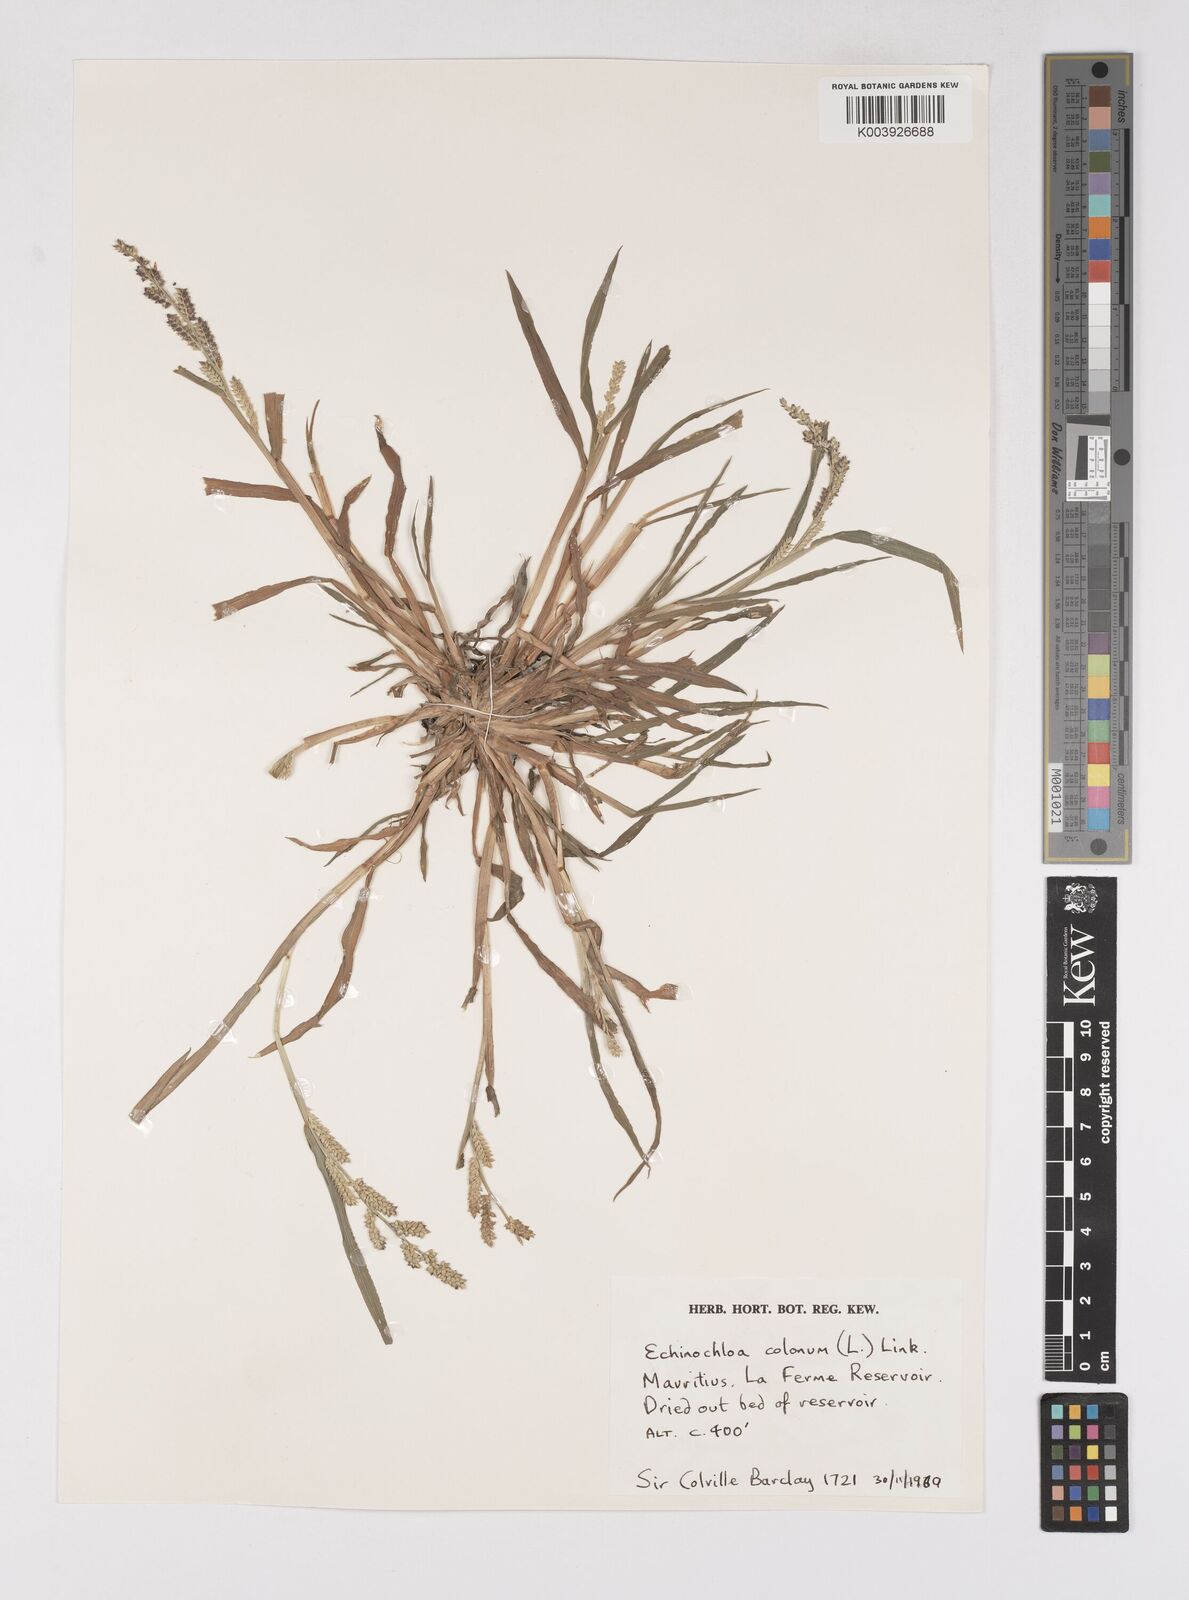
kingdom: Plantae
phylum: Tracheophyta
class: Liliopsida
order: Poales
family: Poaceae
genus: Echinochloa
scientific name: Echinochloa colonum
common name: Jungle rice
